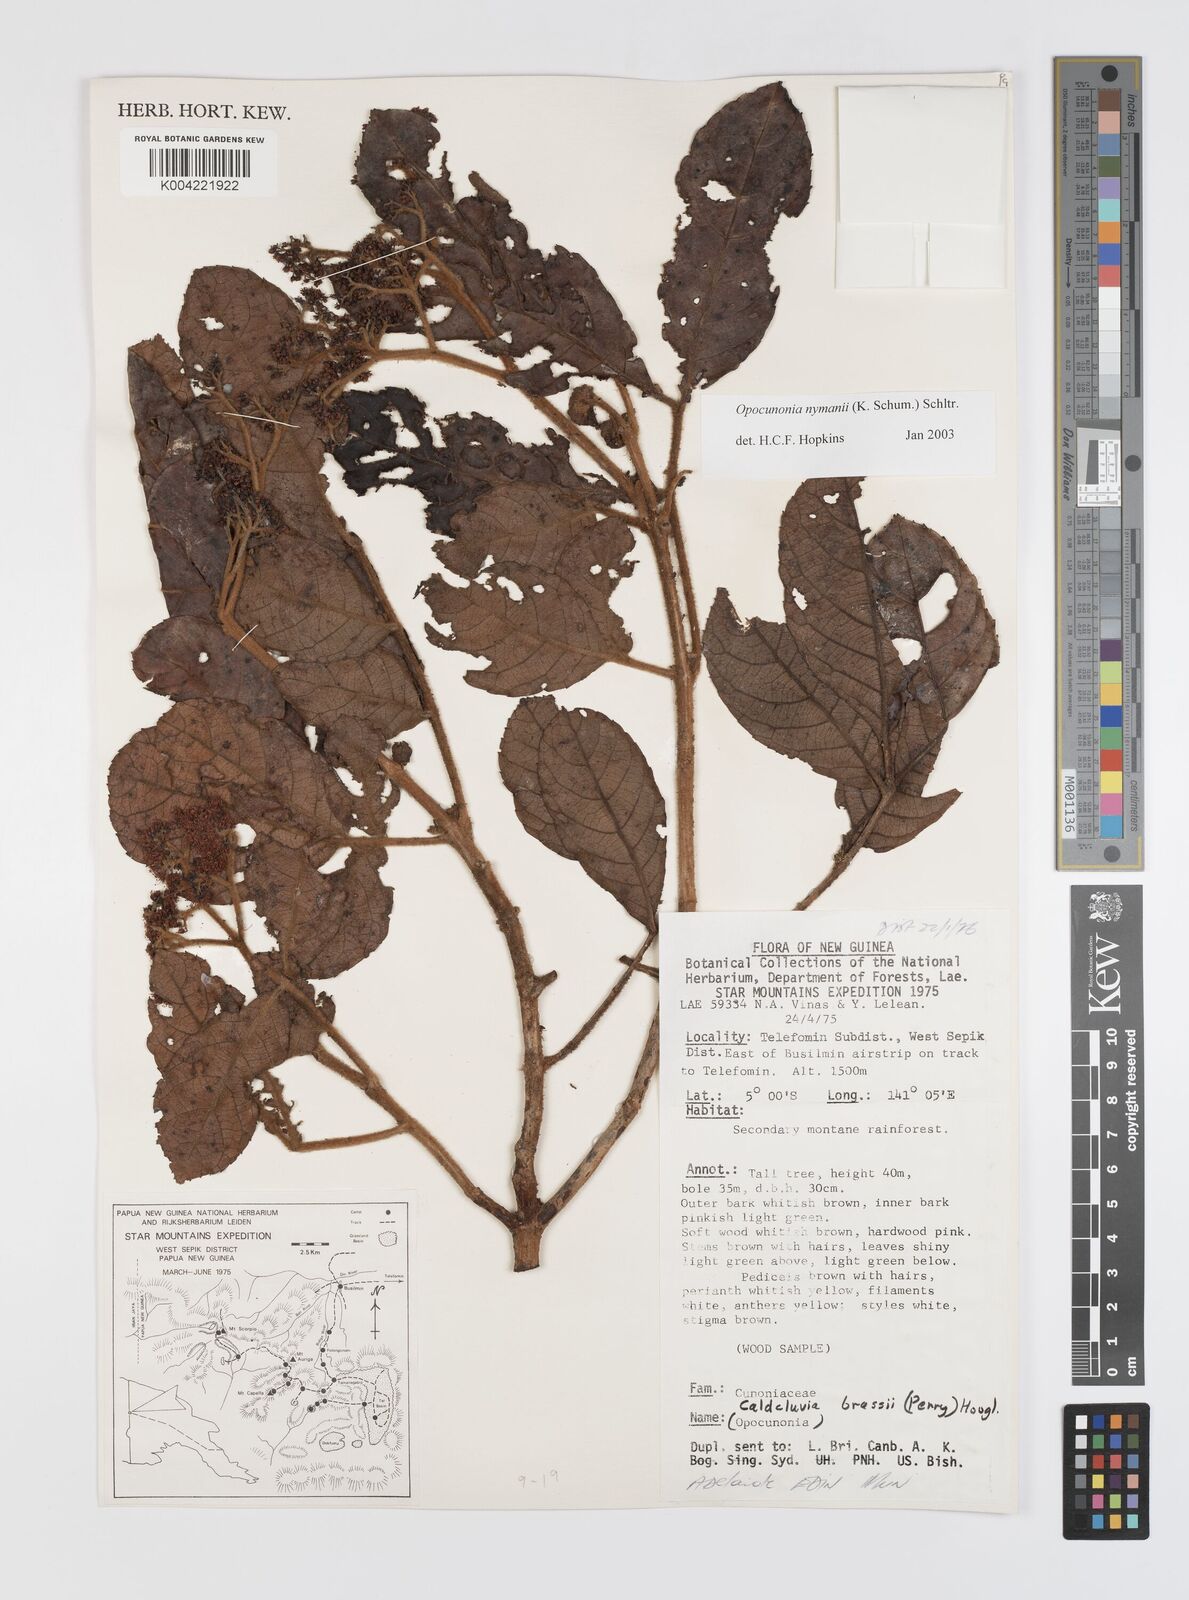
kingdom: Plantae
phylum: Tracheophyta
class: Magnoliopsida
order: Oxalidales
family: Cunoniaceae
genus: Opocunonia
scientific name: Opocunonia nymanii
